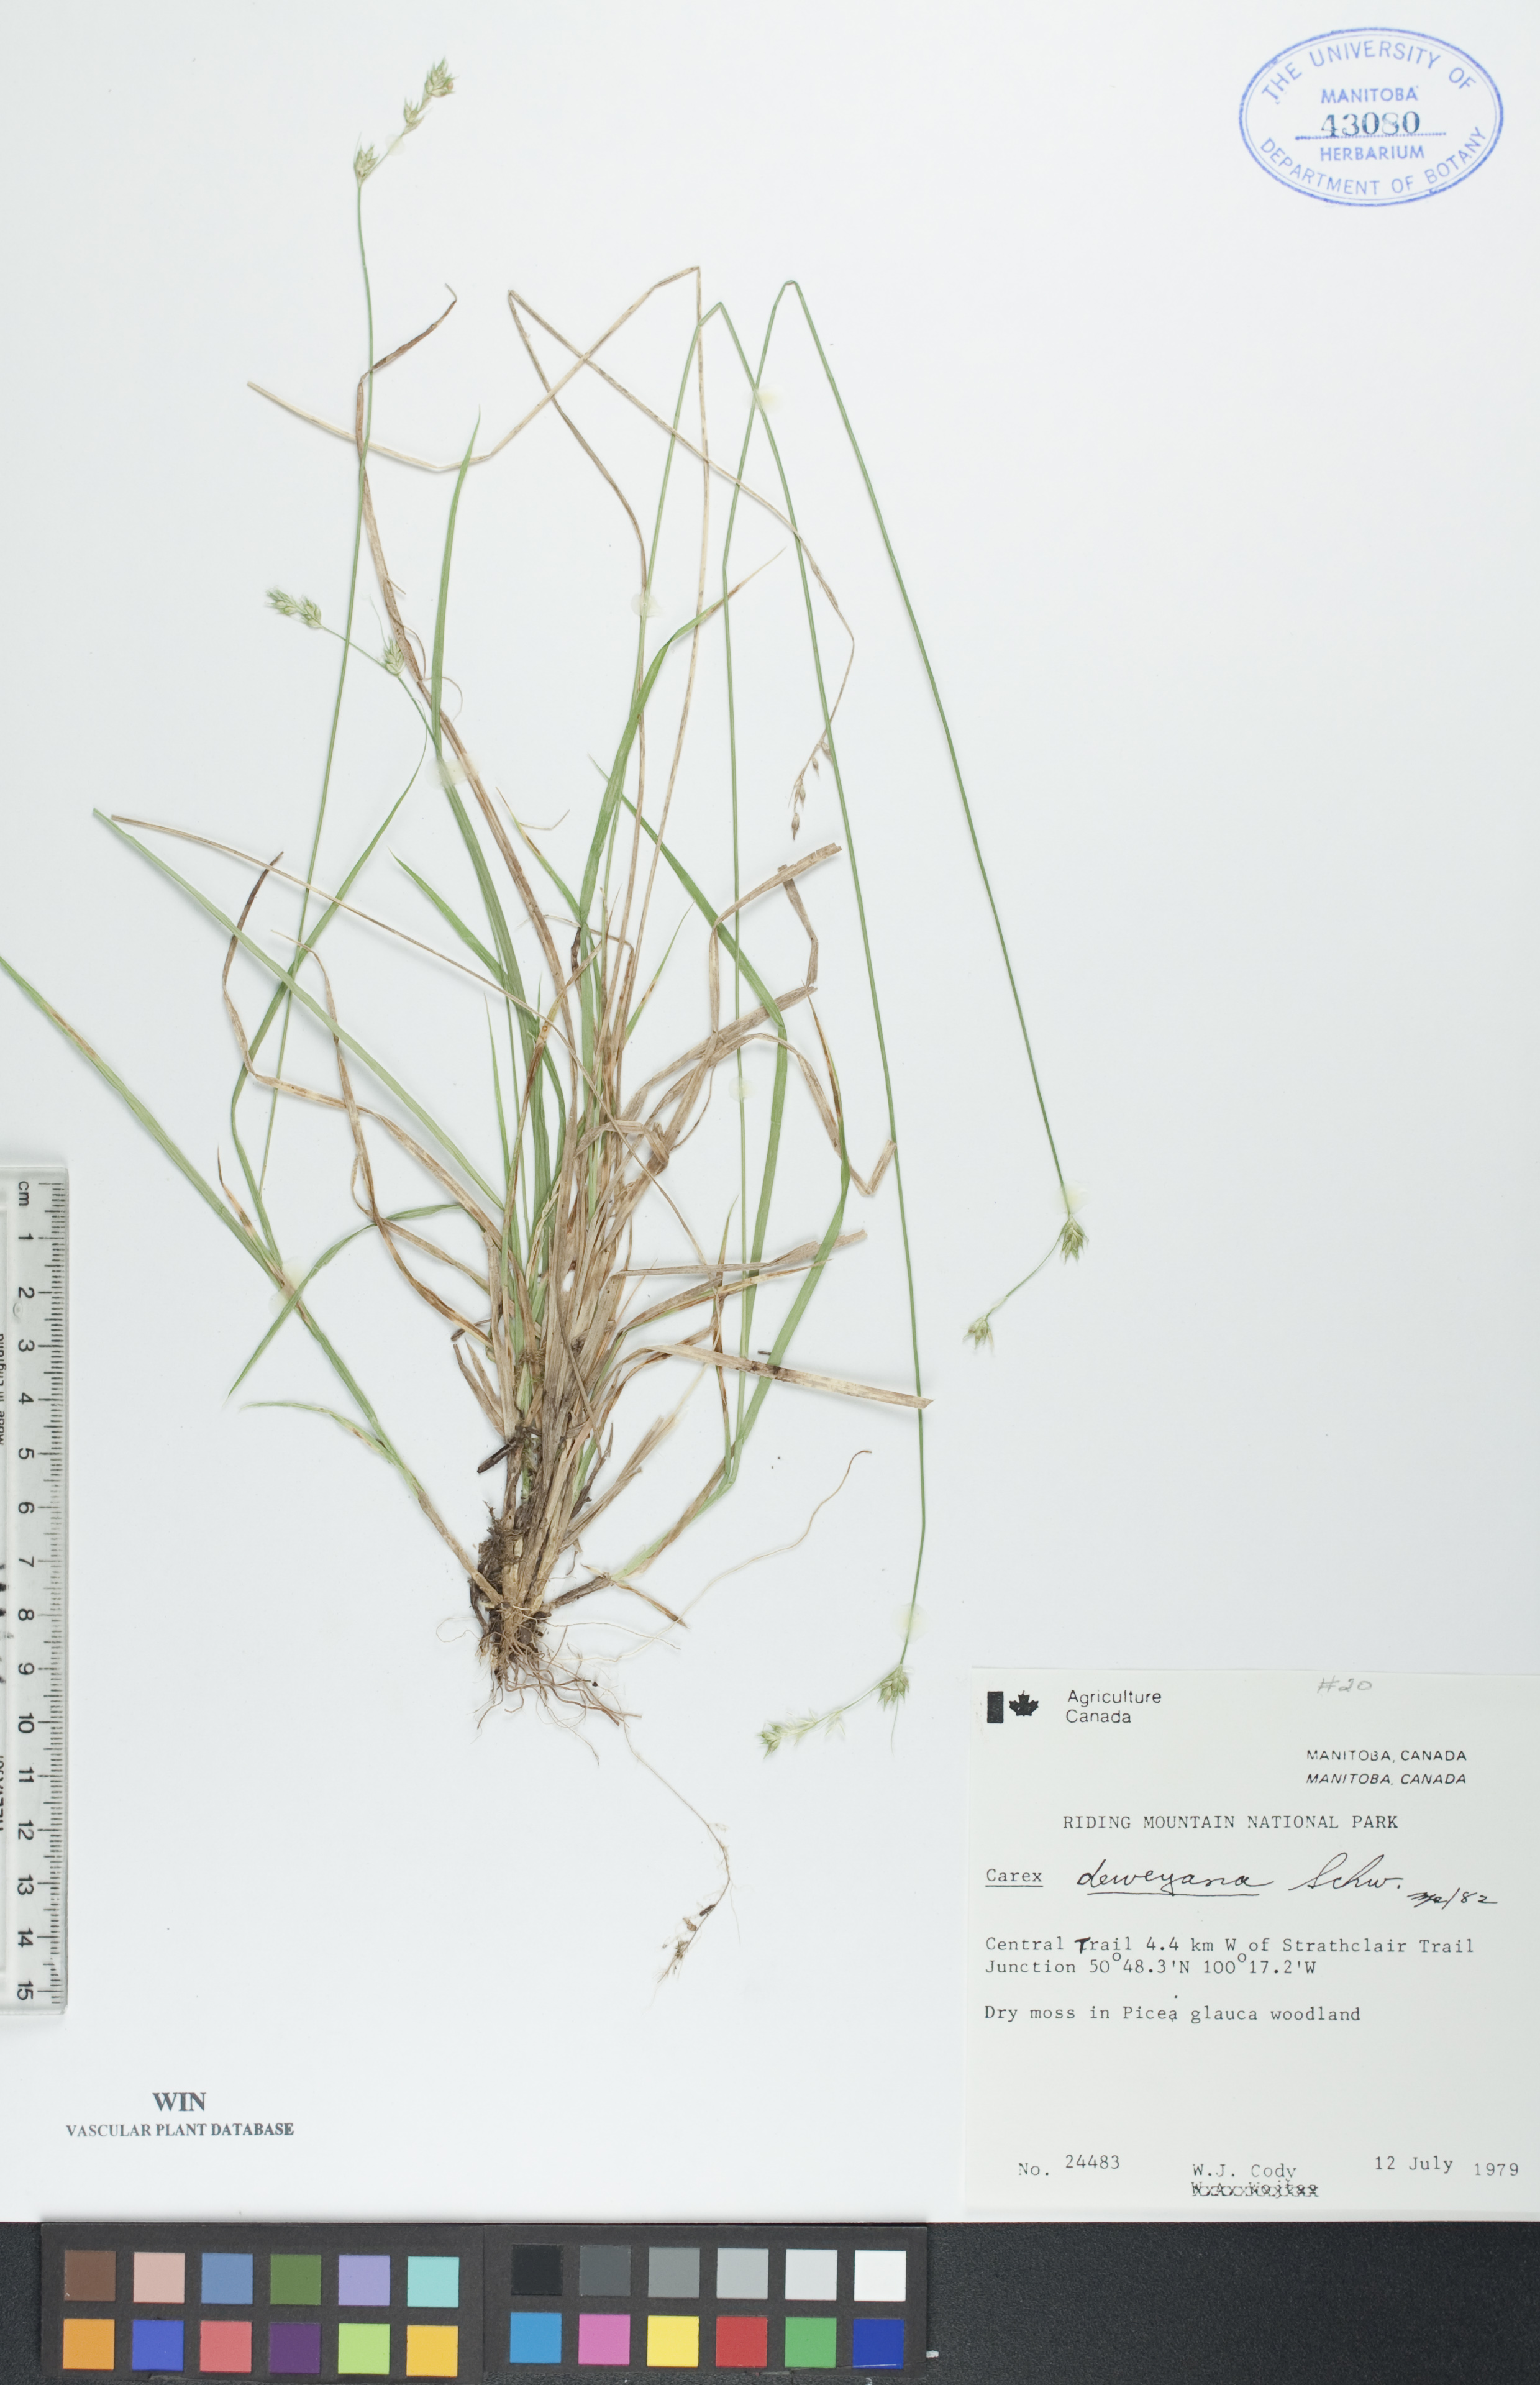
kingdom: Plantae
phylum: Tracheophyta
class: Liliopsida
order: Poales
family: Cyperaceae
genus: Carex
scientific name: Carex deweyana
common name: Dewey's sedge
